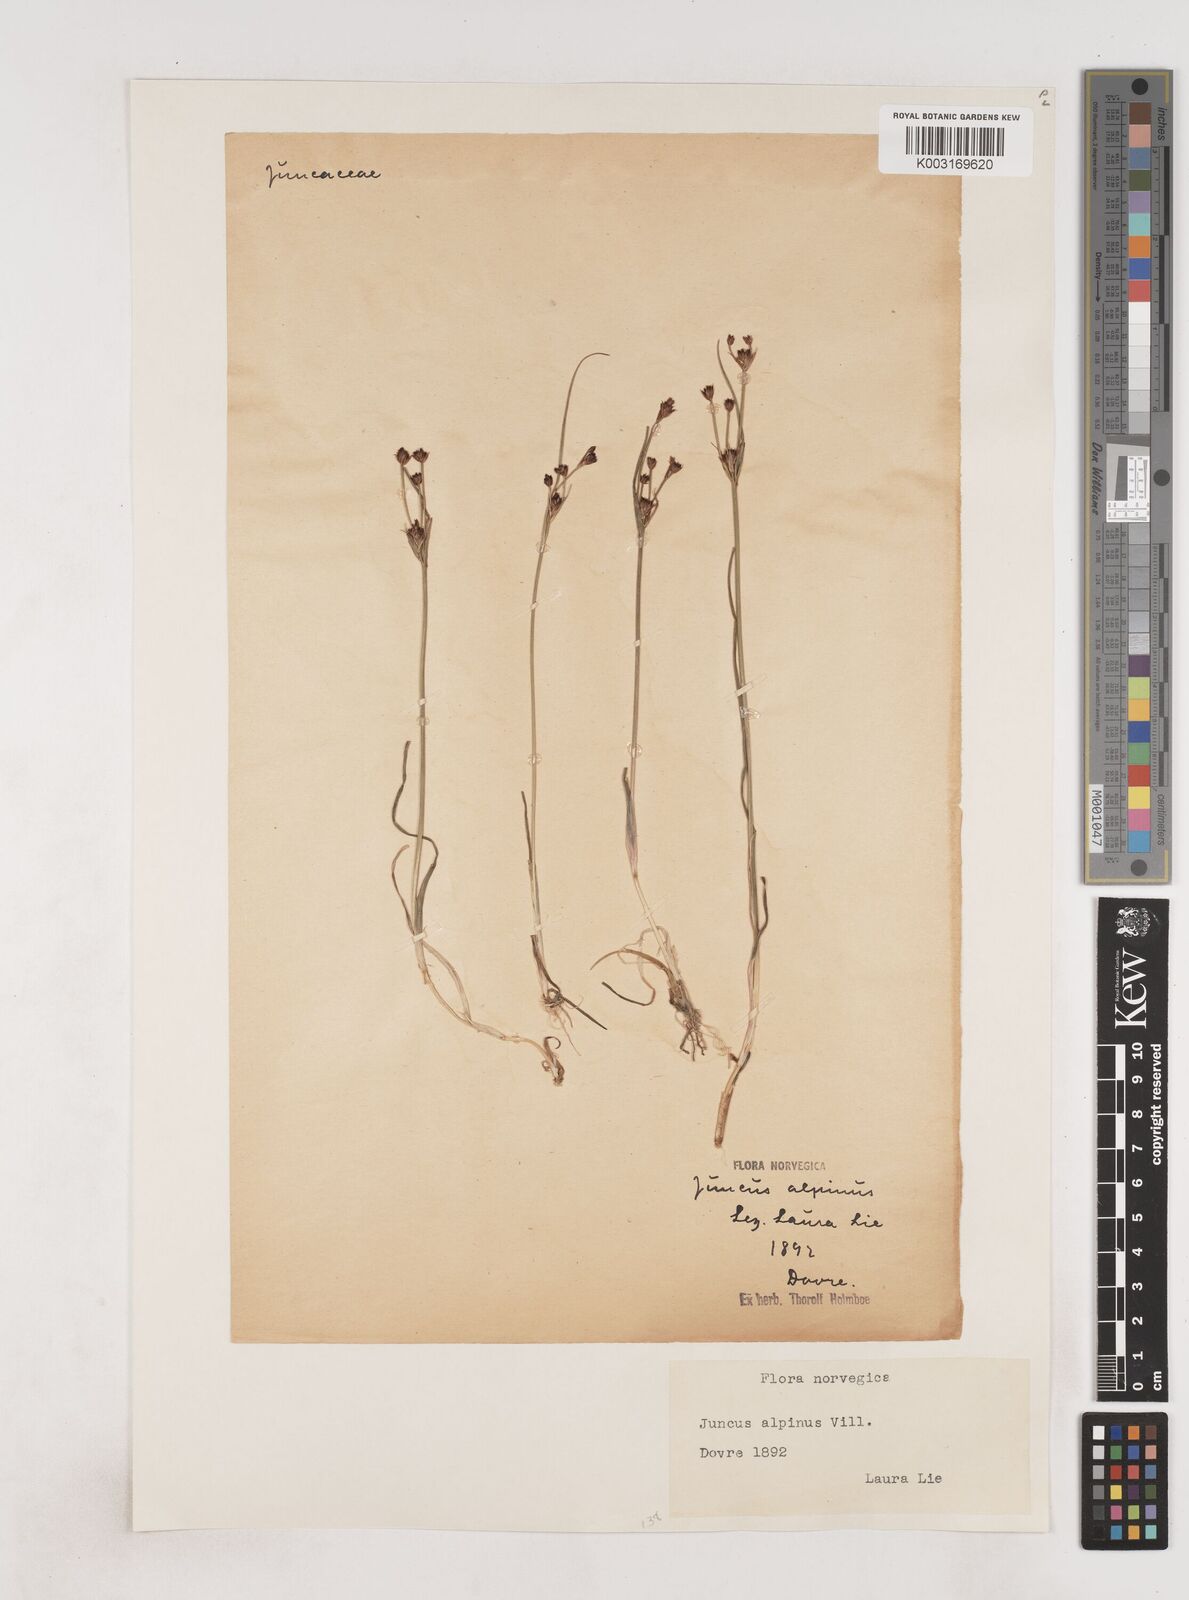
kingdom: Plantae
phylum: Tracheophyta
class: Liliopsida
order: Poales
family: Juncaceae
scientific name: Juncaceae
